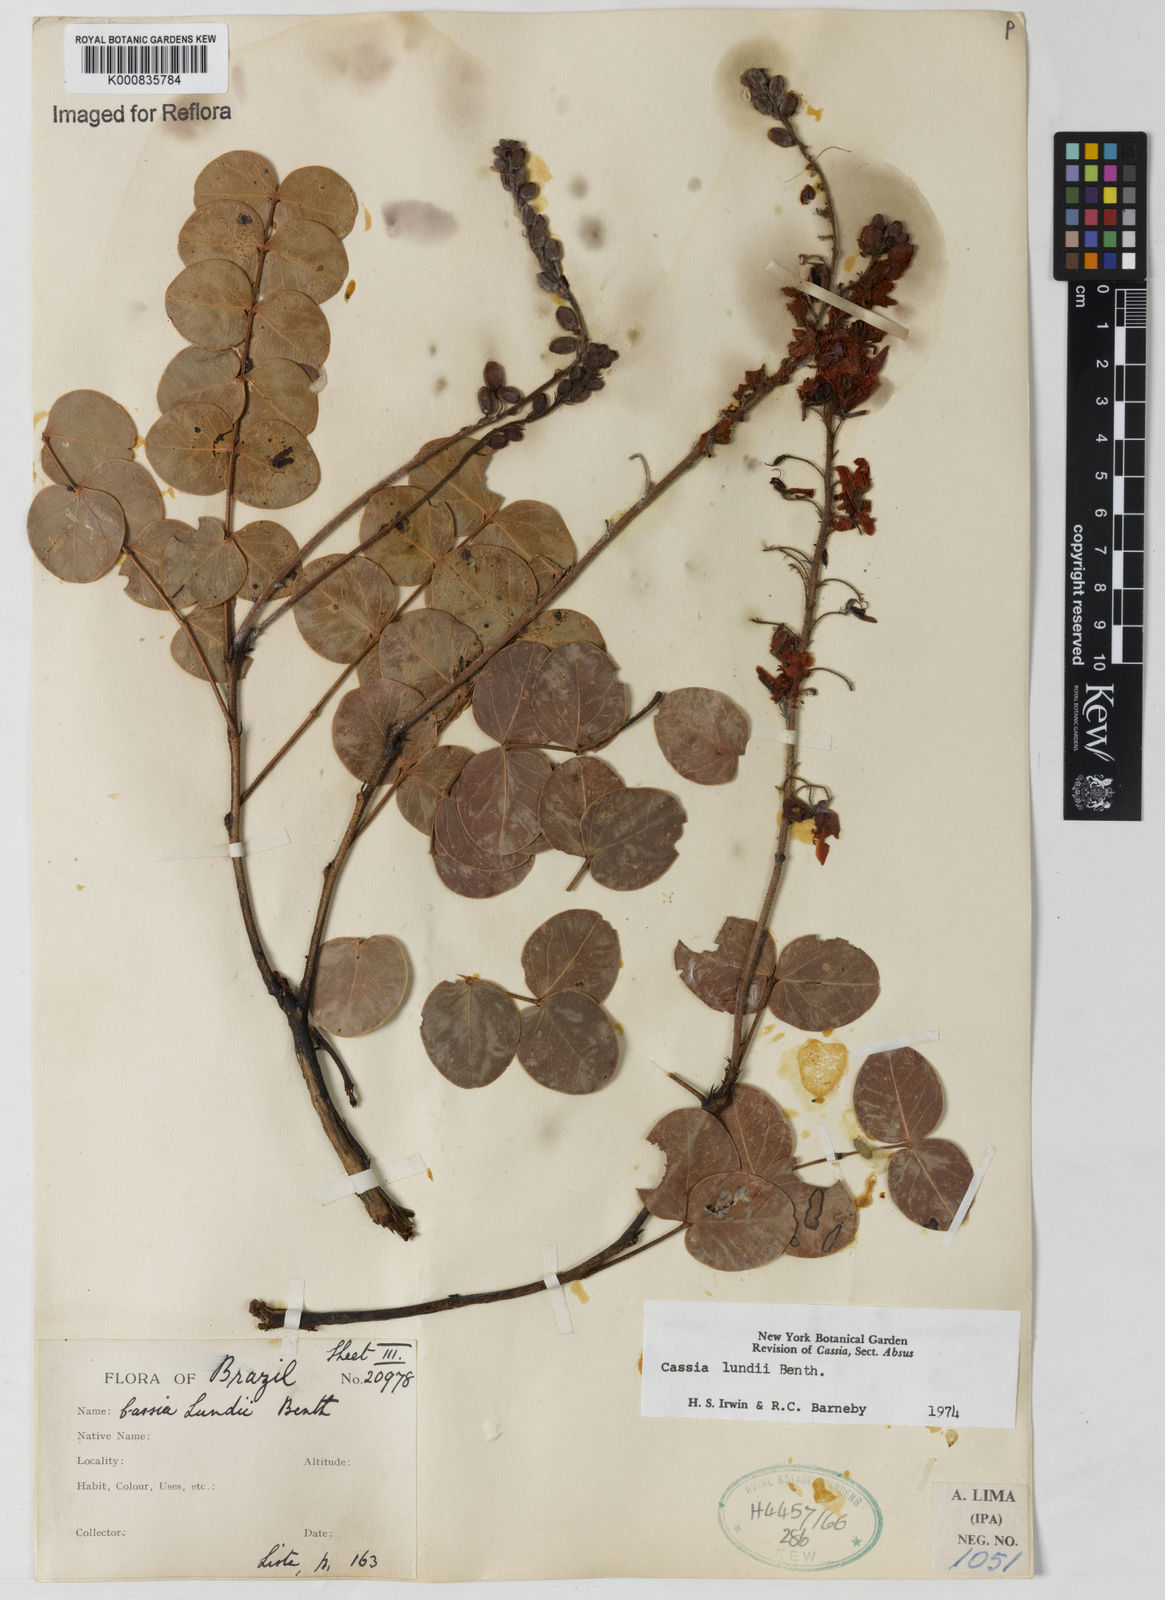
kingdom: Plantae
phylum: Tracheophyta
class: Magnoliopsida
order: Fabales
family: Fabaceae
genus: Chamaecrista
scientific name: Chamaecrista lundii
